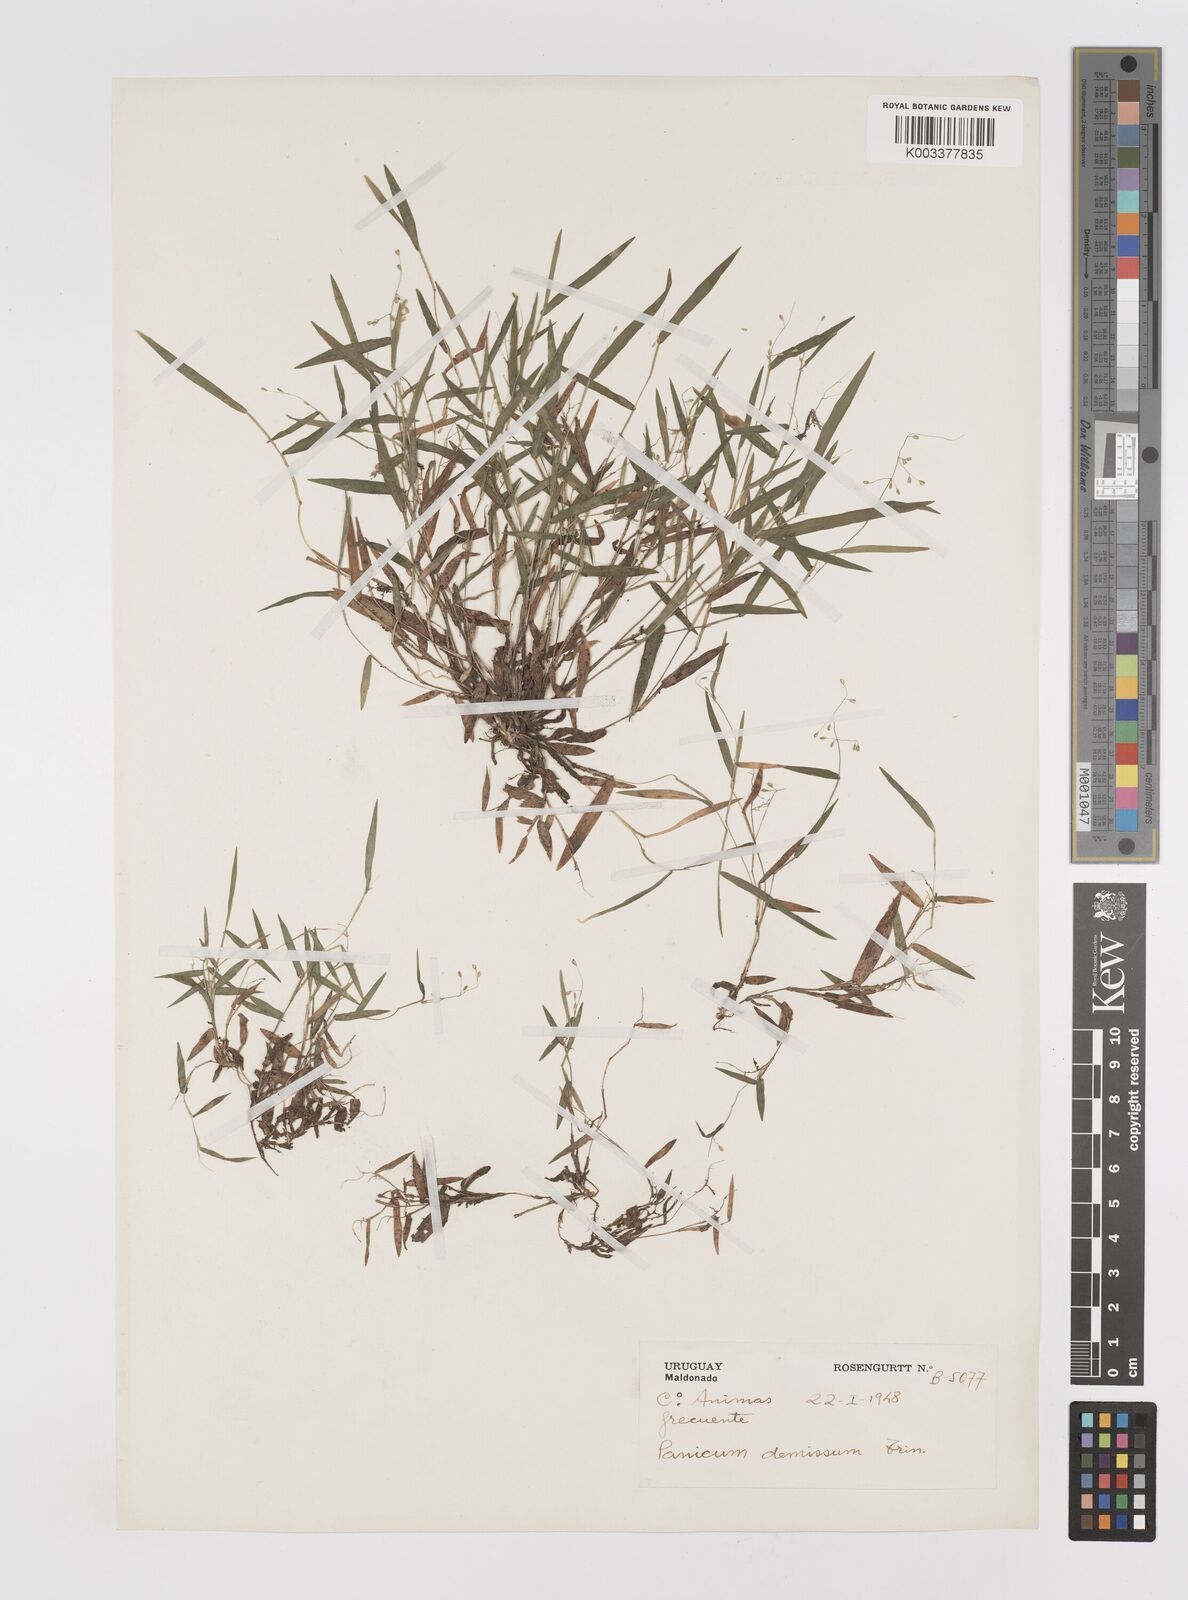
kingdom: Plantae
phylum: Tracheophyta
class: Liliopsida
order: Poales
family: Poaceae
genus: Dichanthelium
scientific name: Dichanthelium sabulorum
